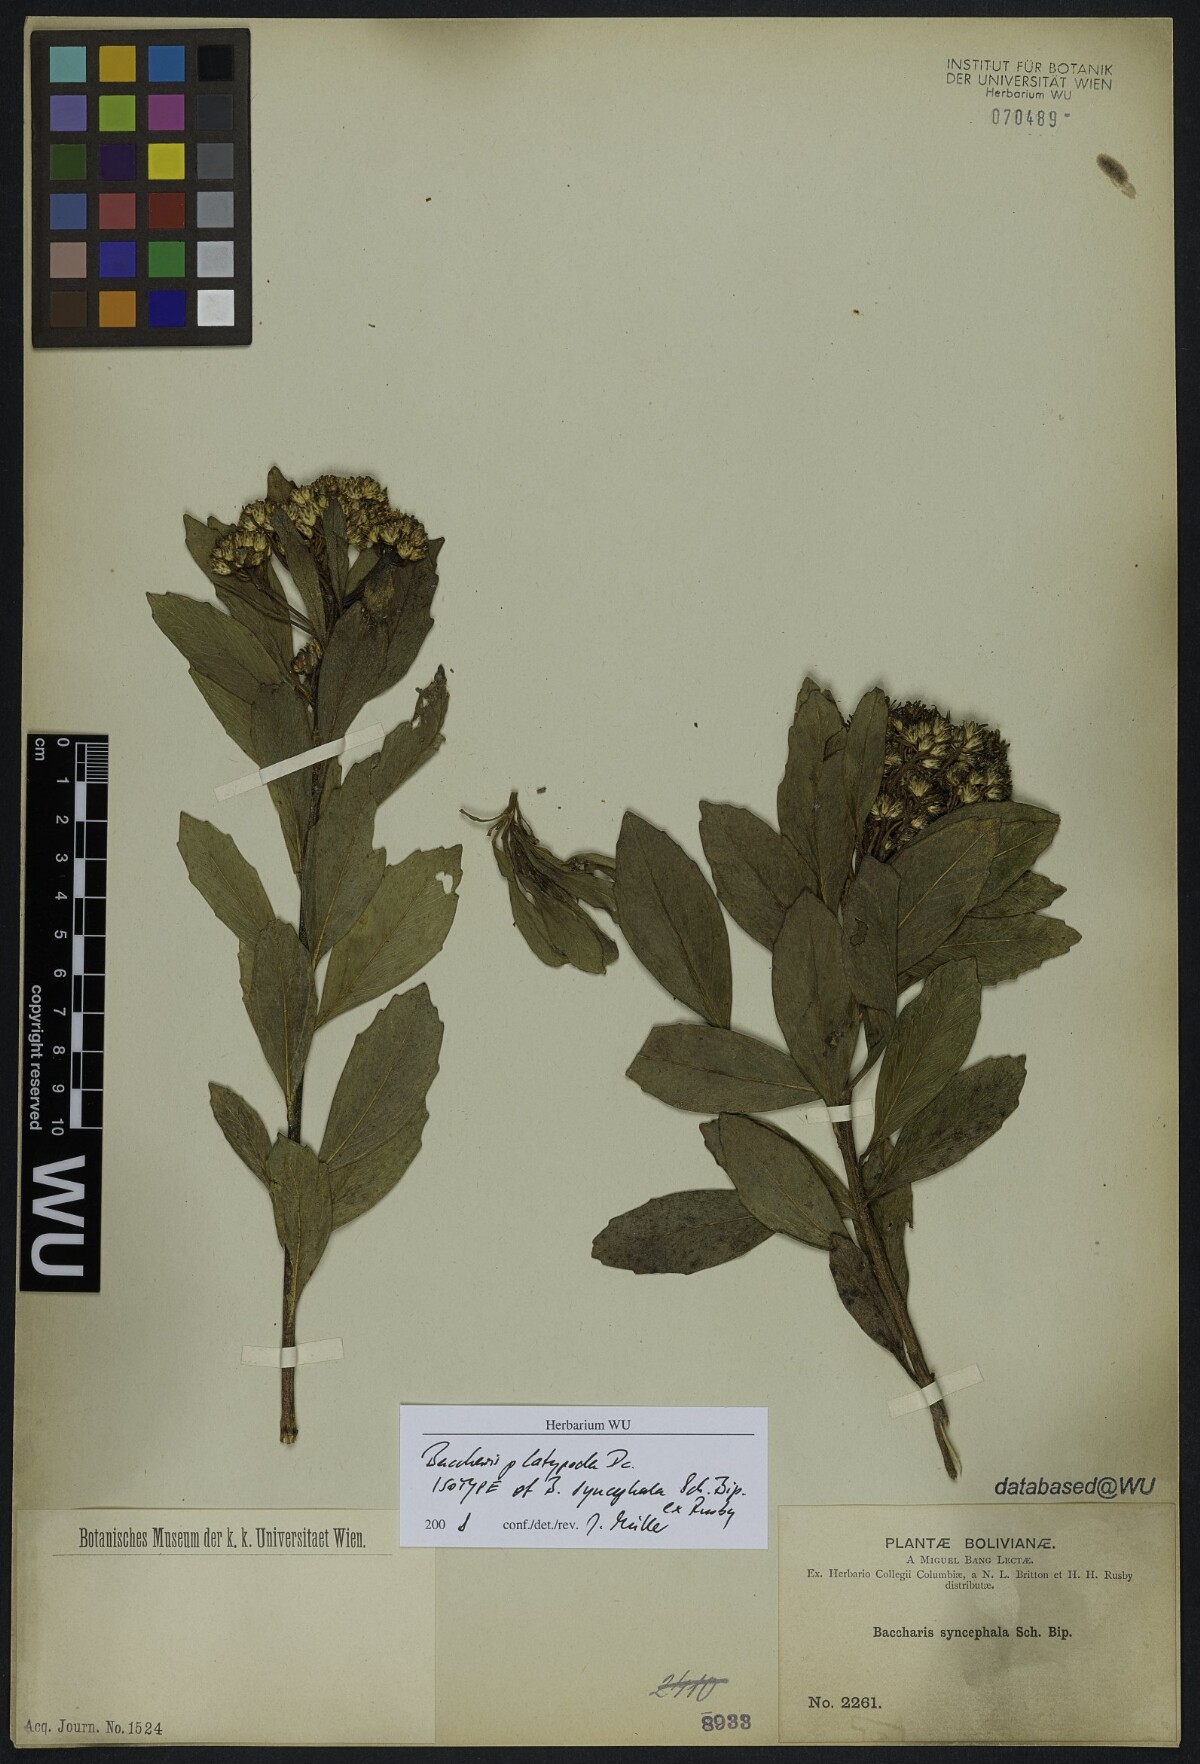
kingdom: Plantae
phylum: Tracheophyta
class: Magnoliopsida
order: Asterales
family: Asteraceae
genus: Baccharis
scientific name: Baccharis platypoda
